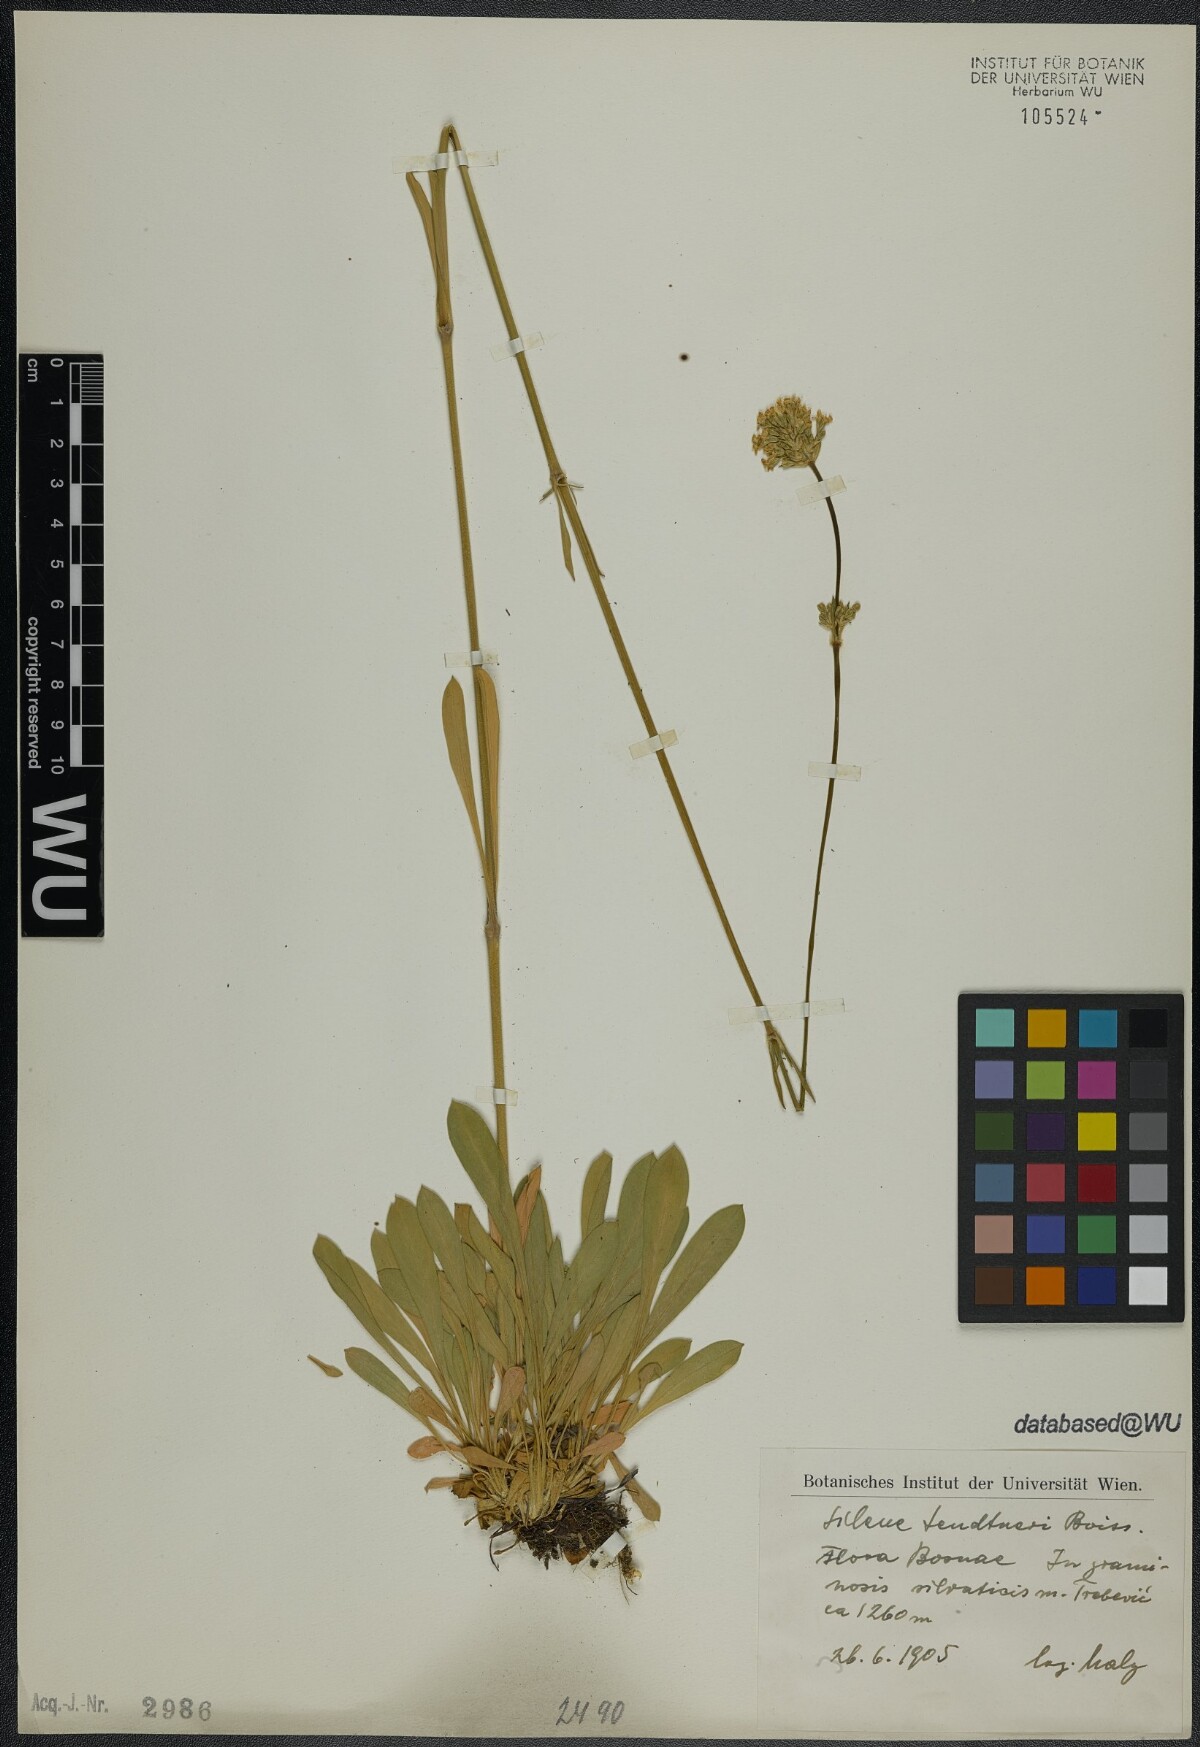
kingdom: Plantae
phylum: Tracheophyta
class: Magnoliopsida
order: Caryophyllales
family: Caryophyllaceae
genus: Silene
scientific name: Silene sendtneri
